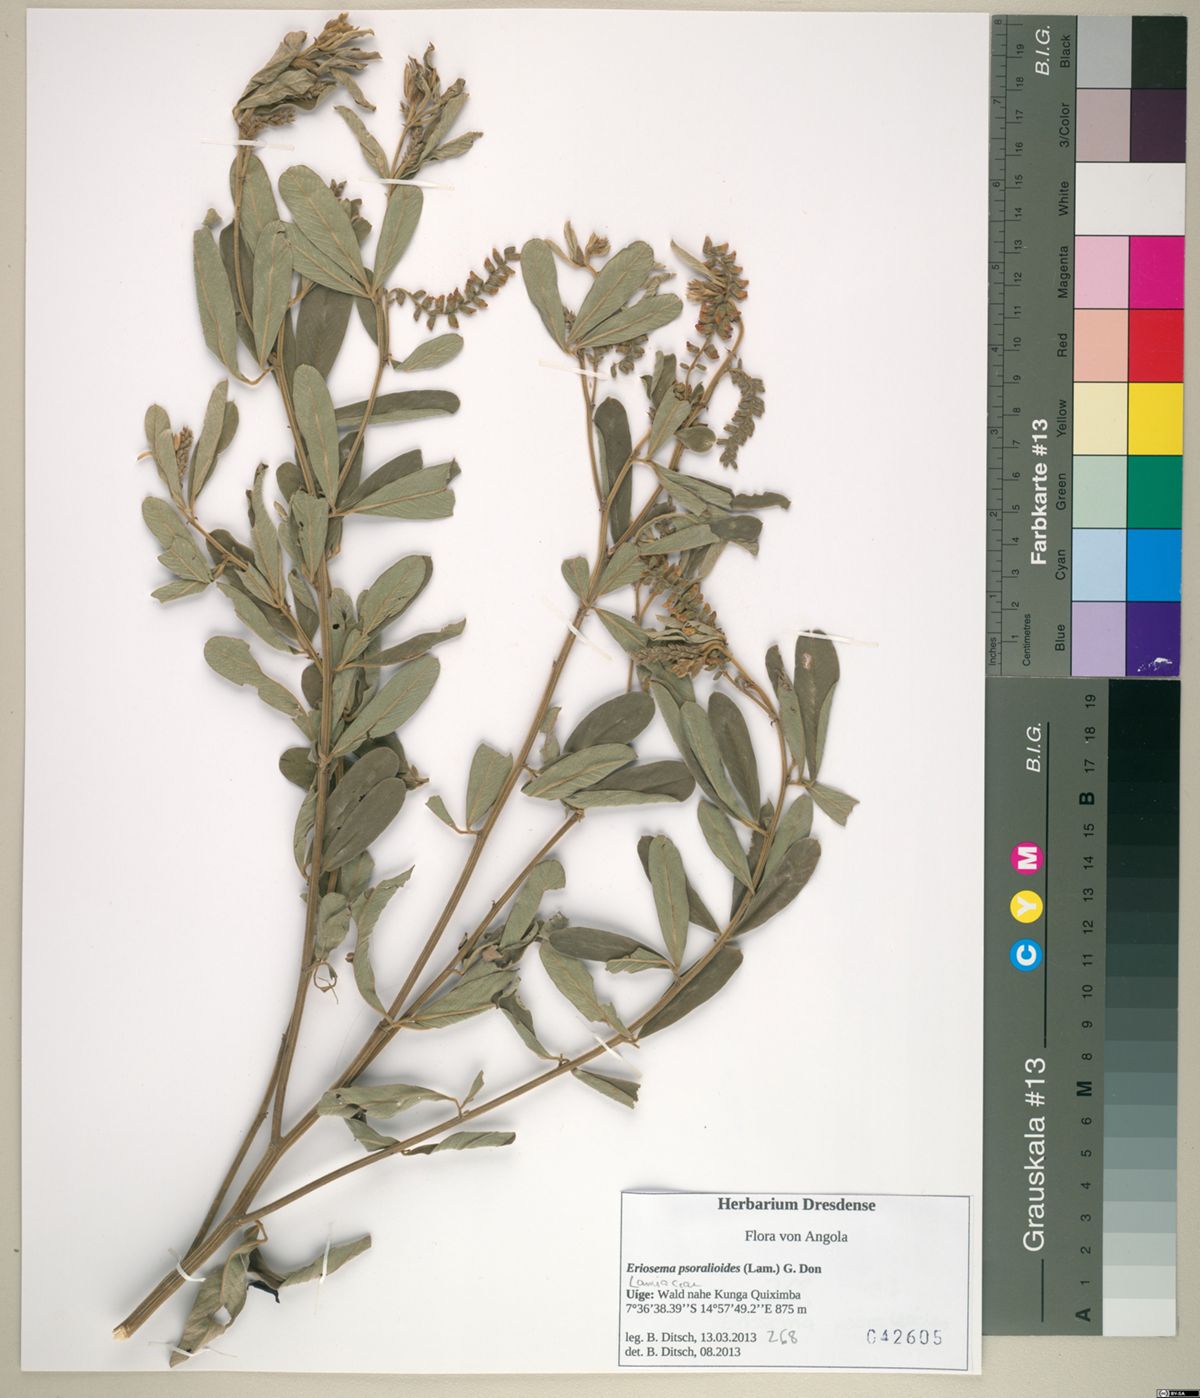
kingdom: Plantae
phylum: Tracheophyta
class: Magnoliopsida
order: Fabales
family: Fabaceae
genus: Eriosema
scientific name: Eriosema psoraleoides
